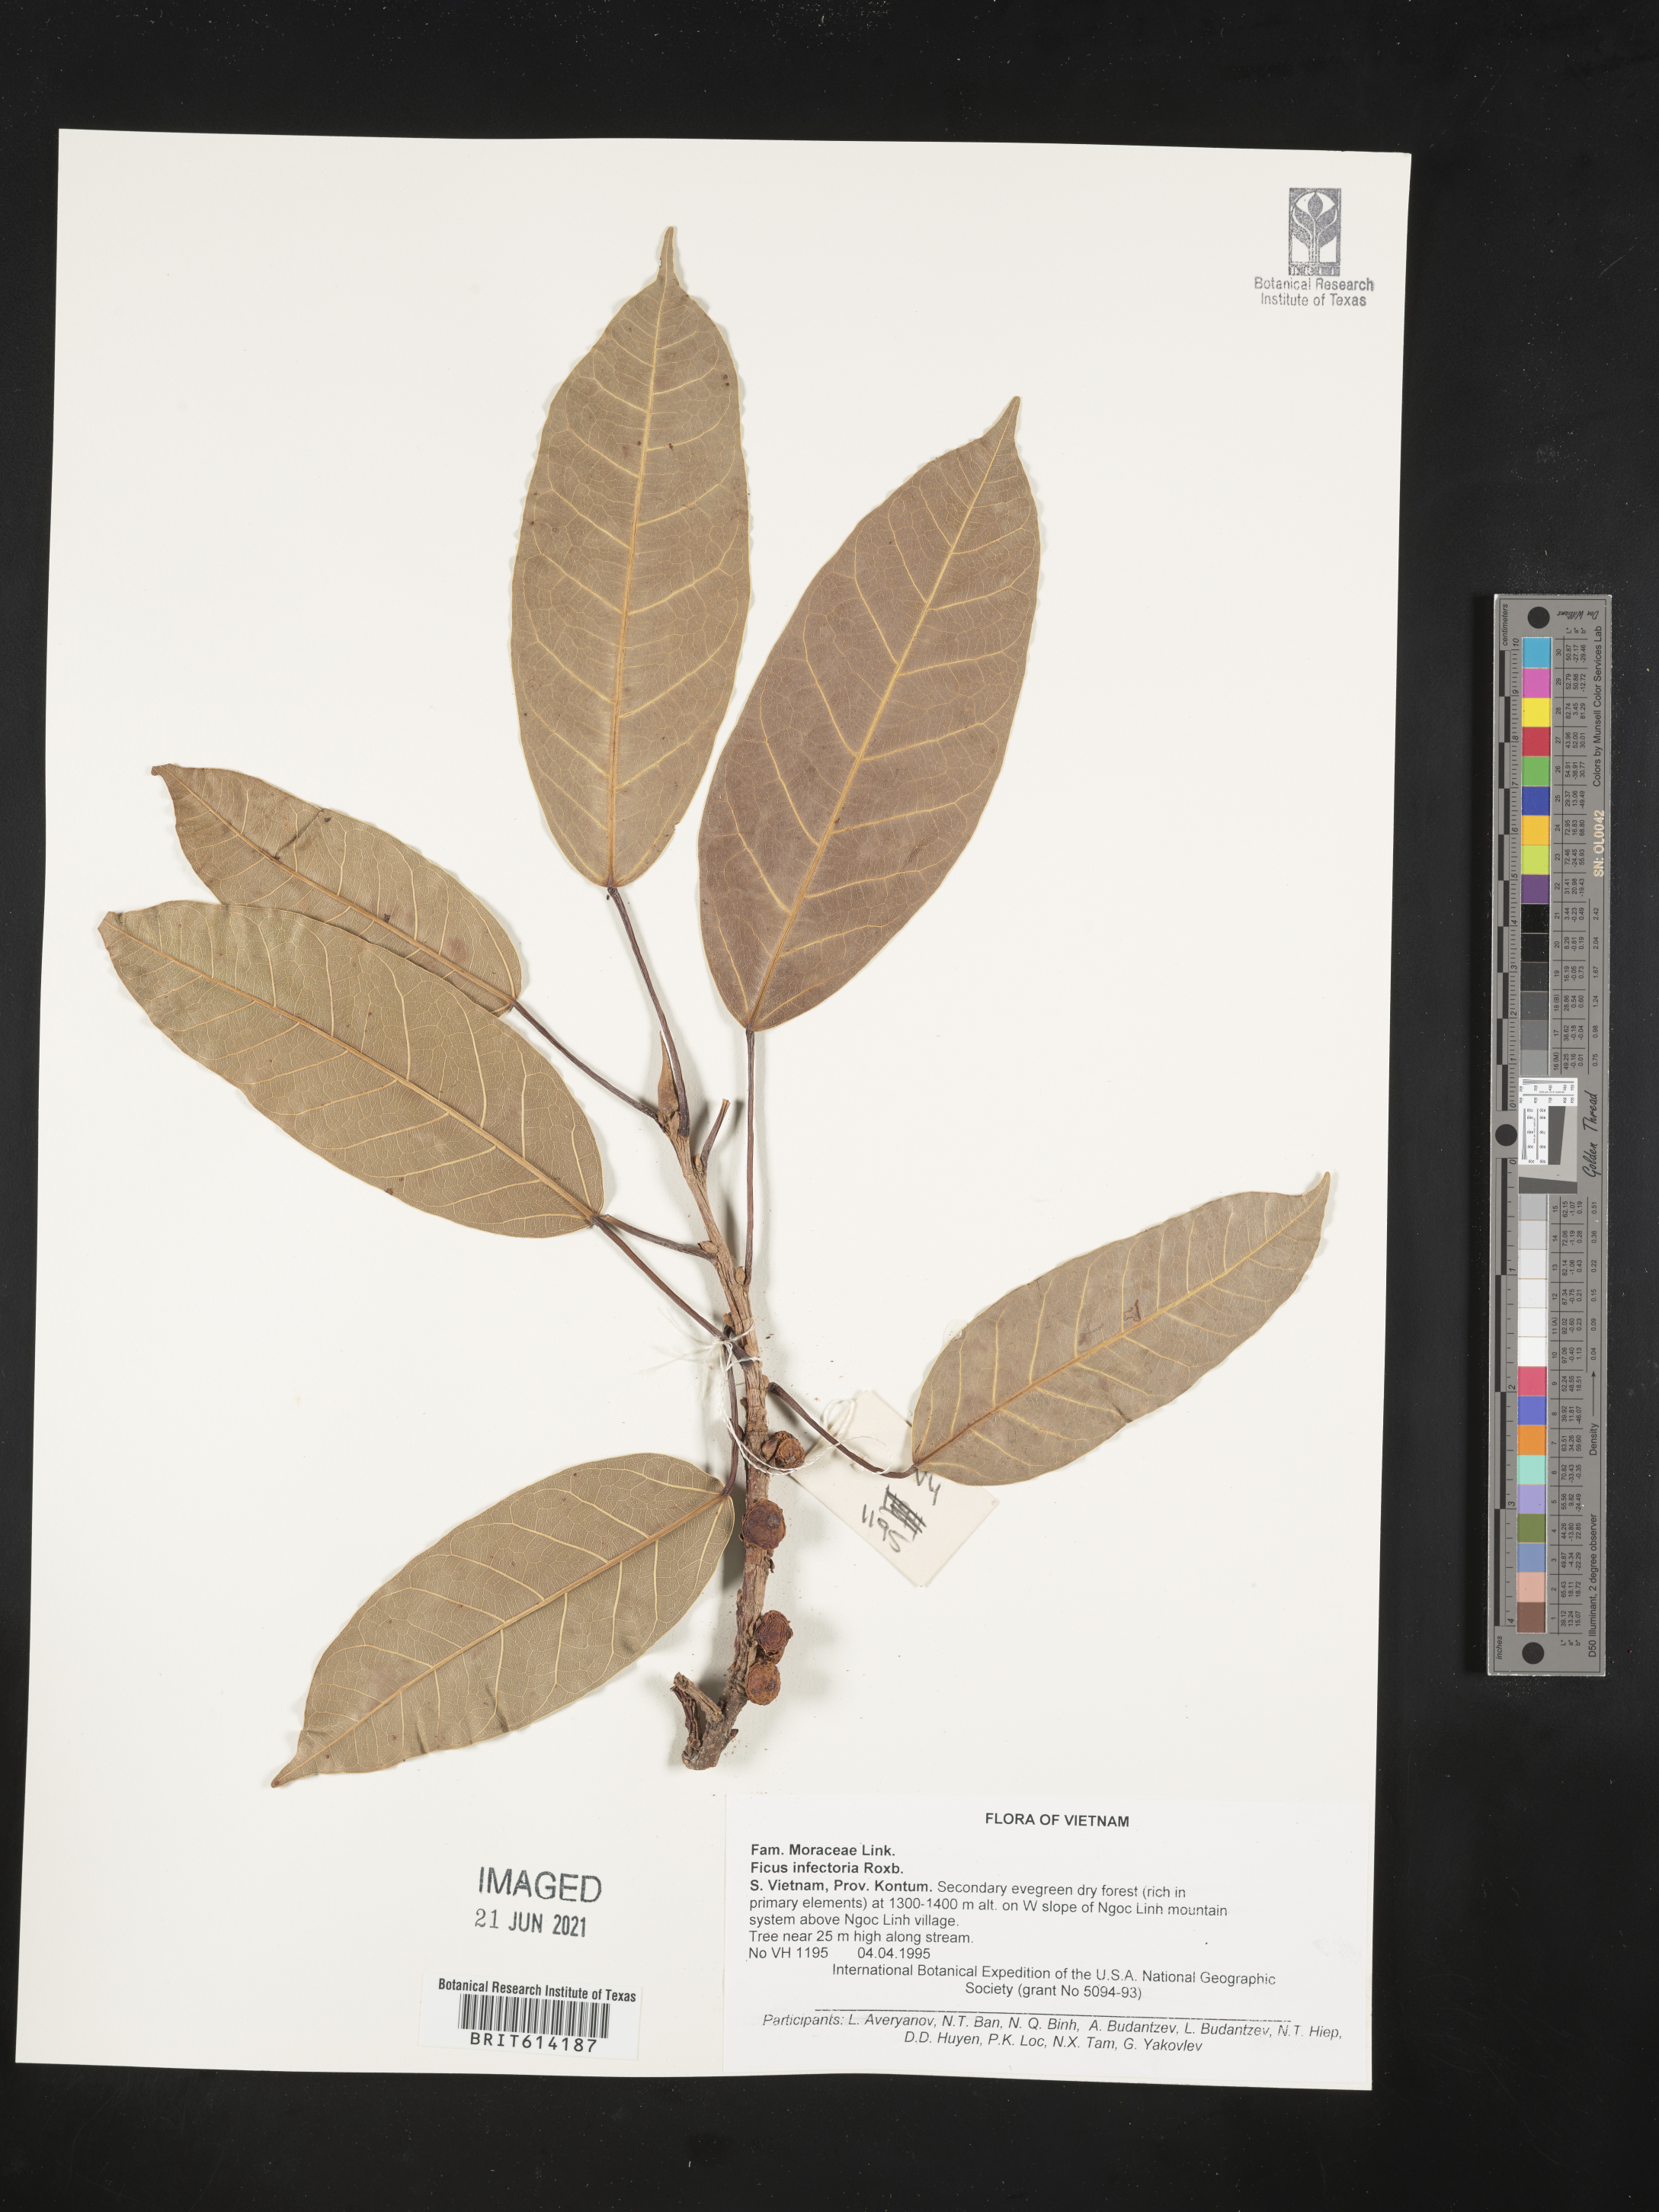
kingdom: Plantae
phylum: Tracheophyta
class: Magnoliopsida
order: Rosales
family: Moraceae
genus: Ficus
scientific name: Ficus
